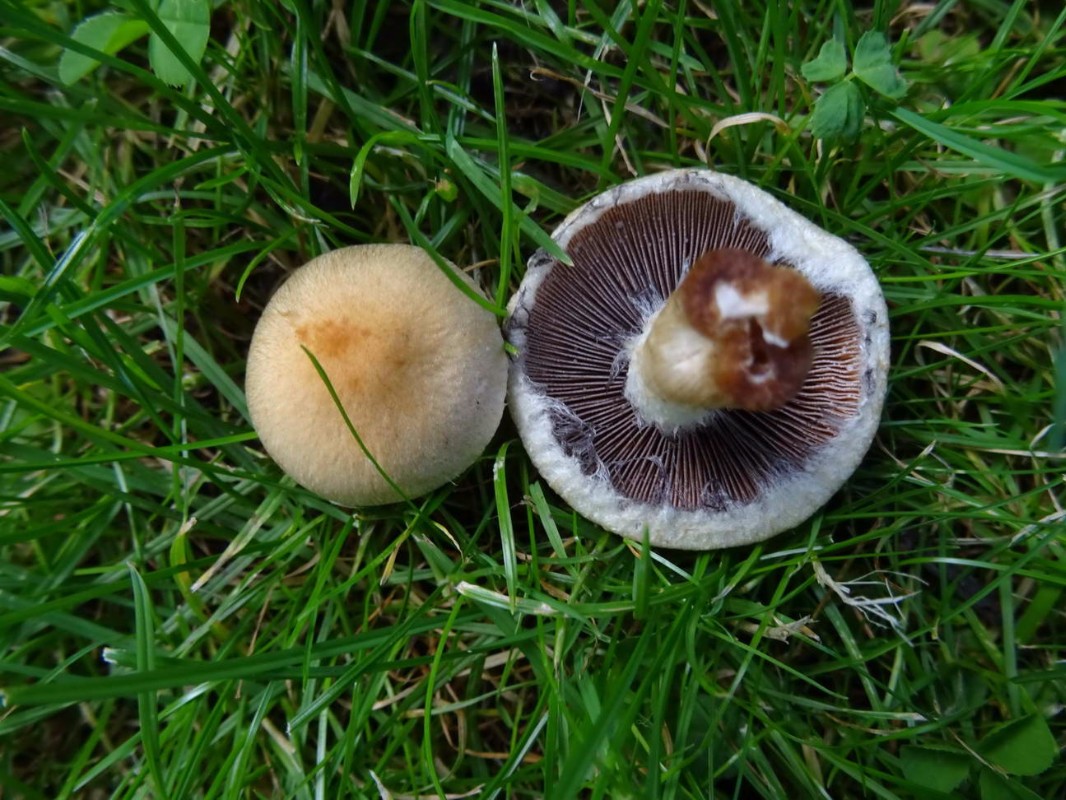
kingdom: Fungi
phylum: Basidiomycota
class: Agaricomycetes
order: Agaricales
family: Psathyrellaceae
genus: Lacrymaria
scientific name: Lacrymaria lacrymabunda
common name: grædende mørkhat
